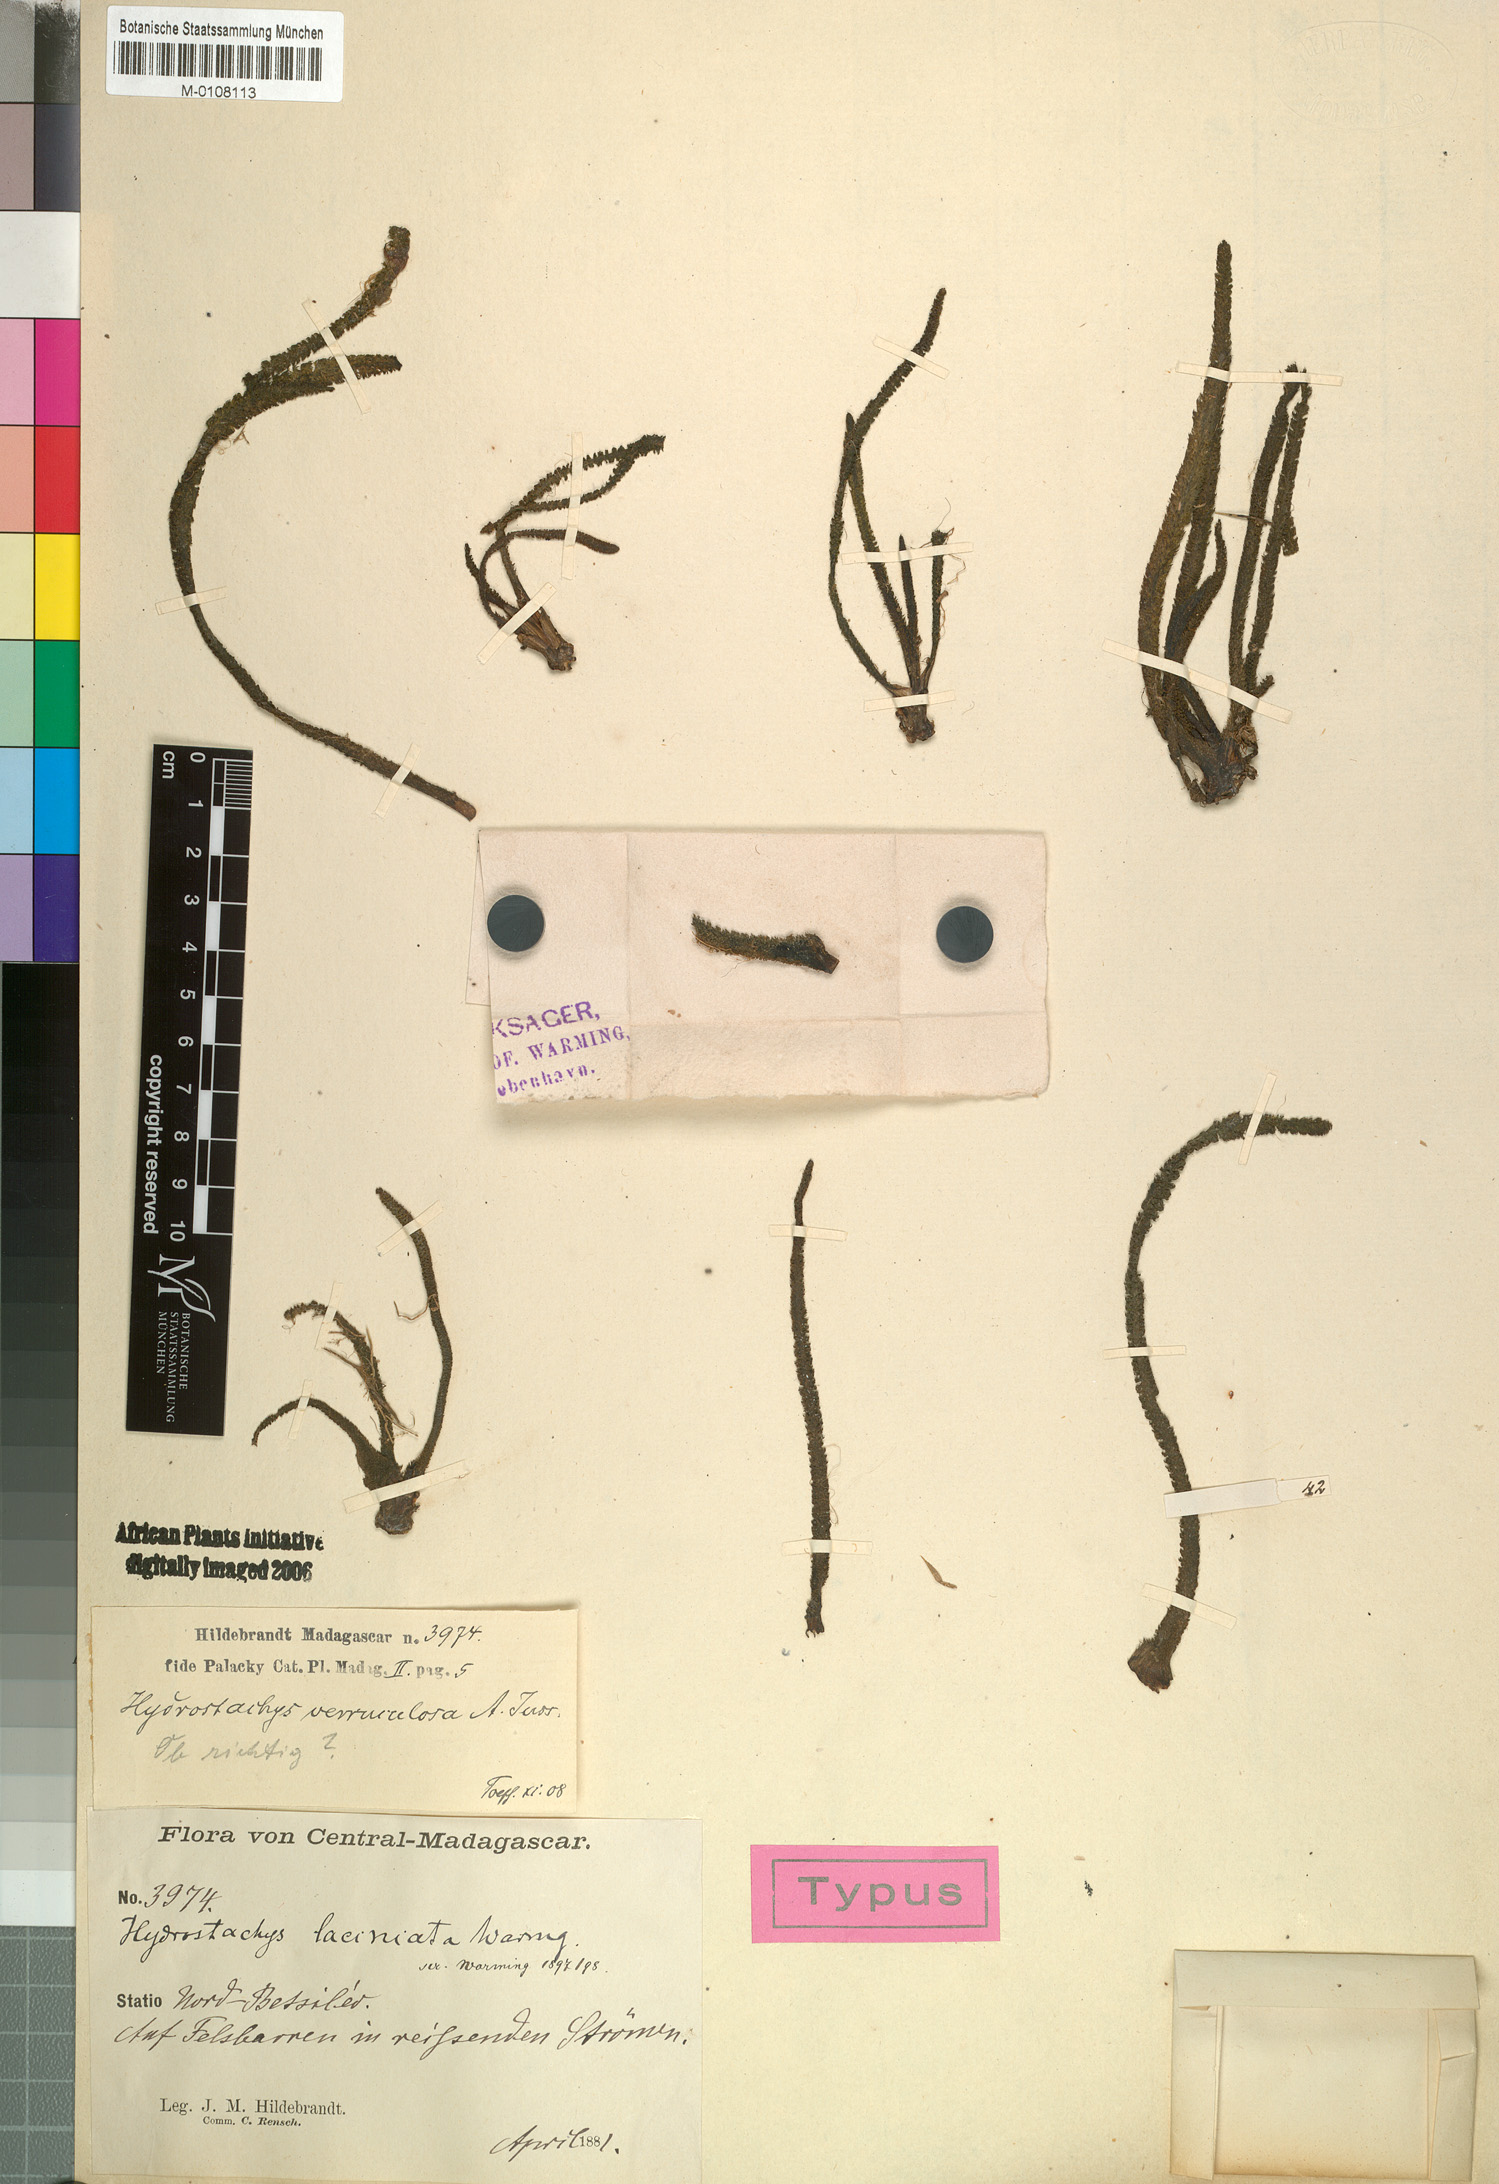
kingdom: Plantae
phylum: Tracheophyta
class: Magnoliopsida
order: Cornales
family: Hydrostachyaceae
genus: Hydrostachys
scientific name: Hydrostachys verruculosa
